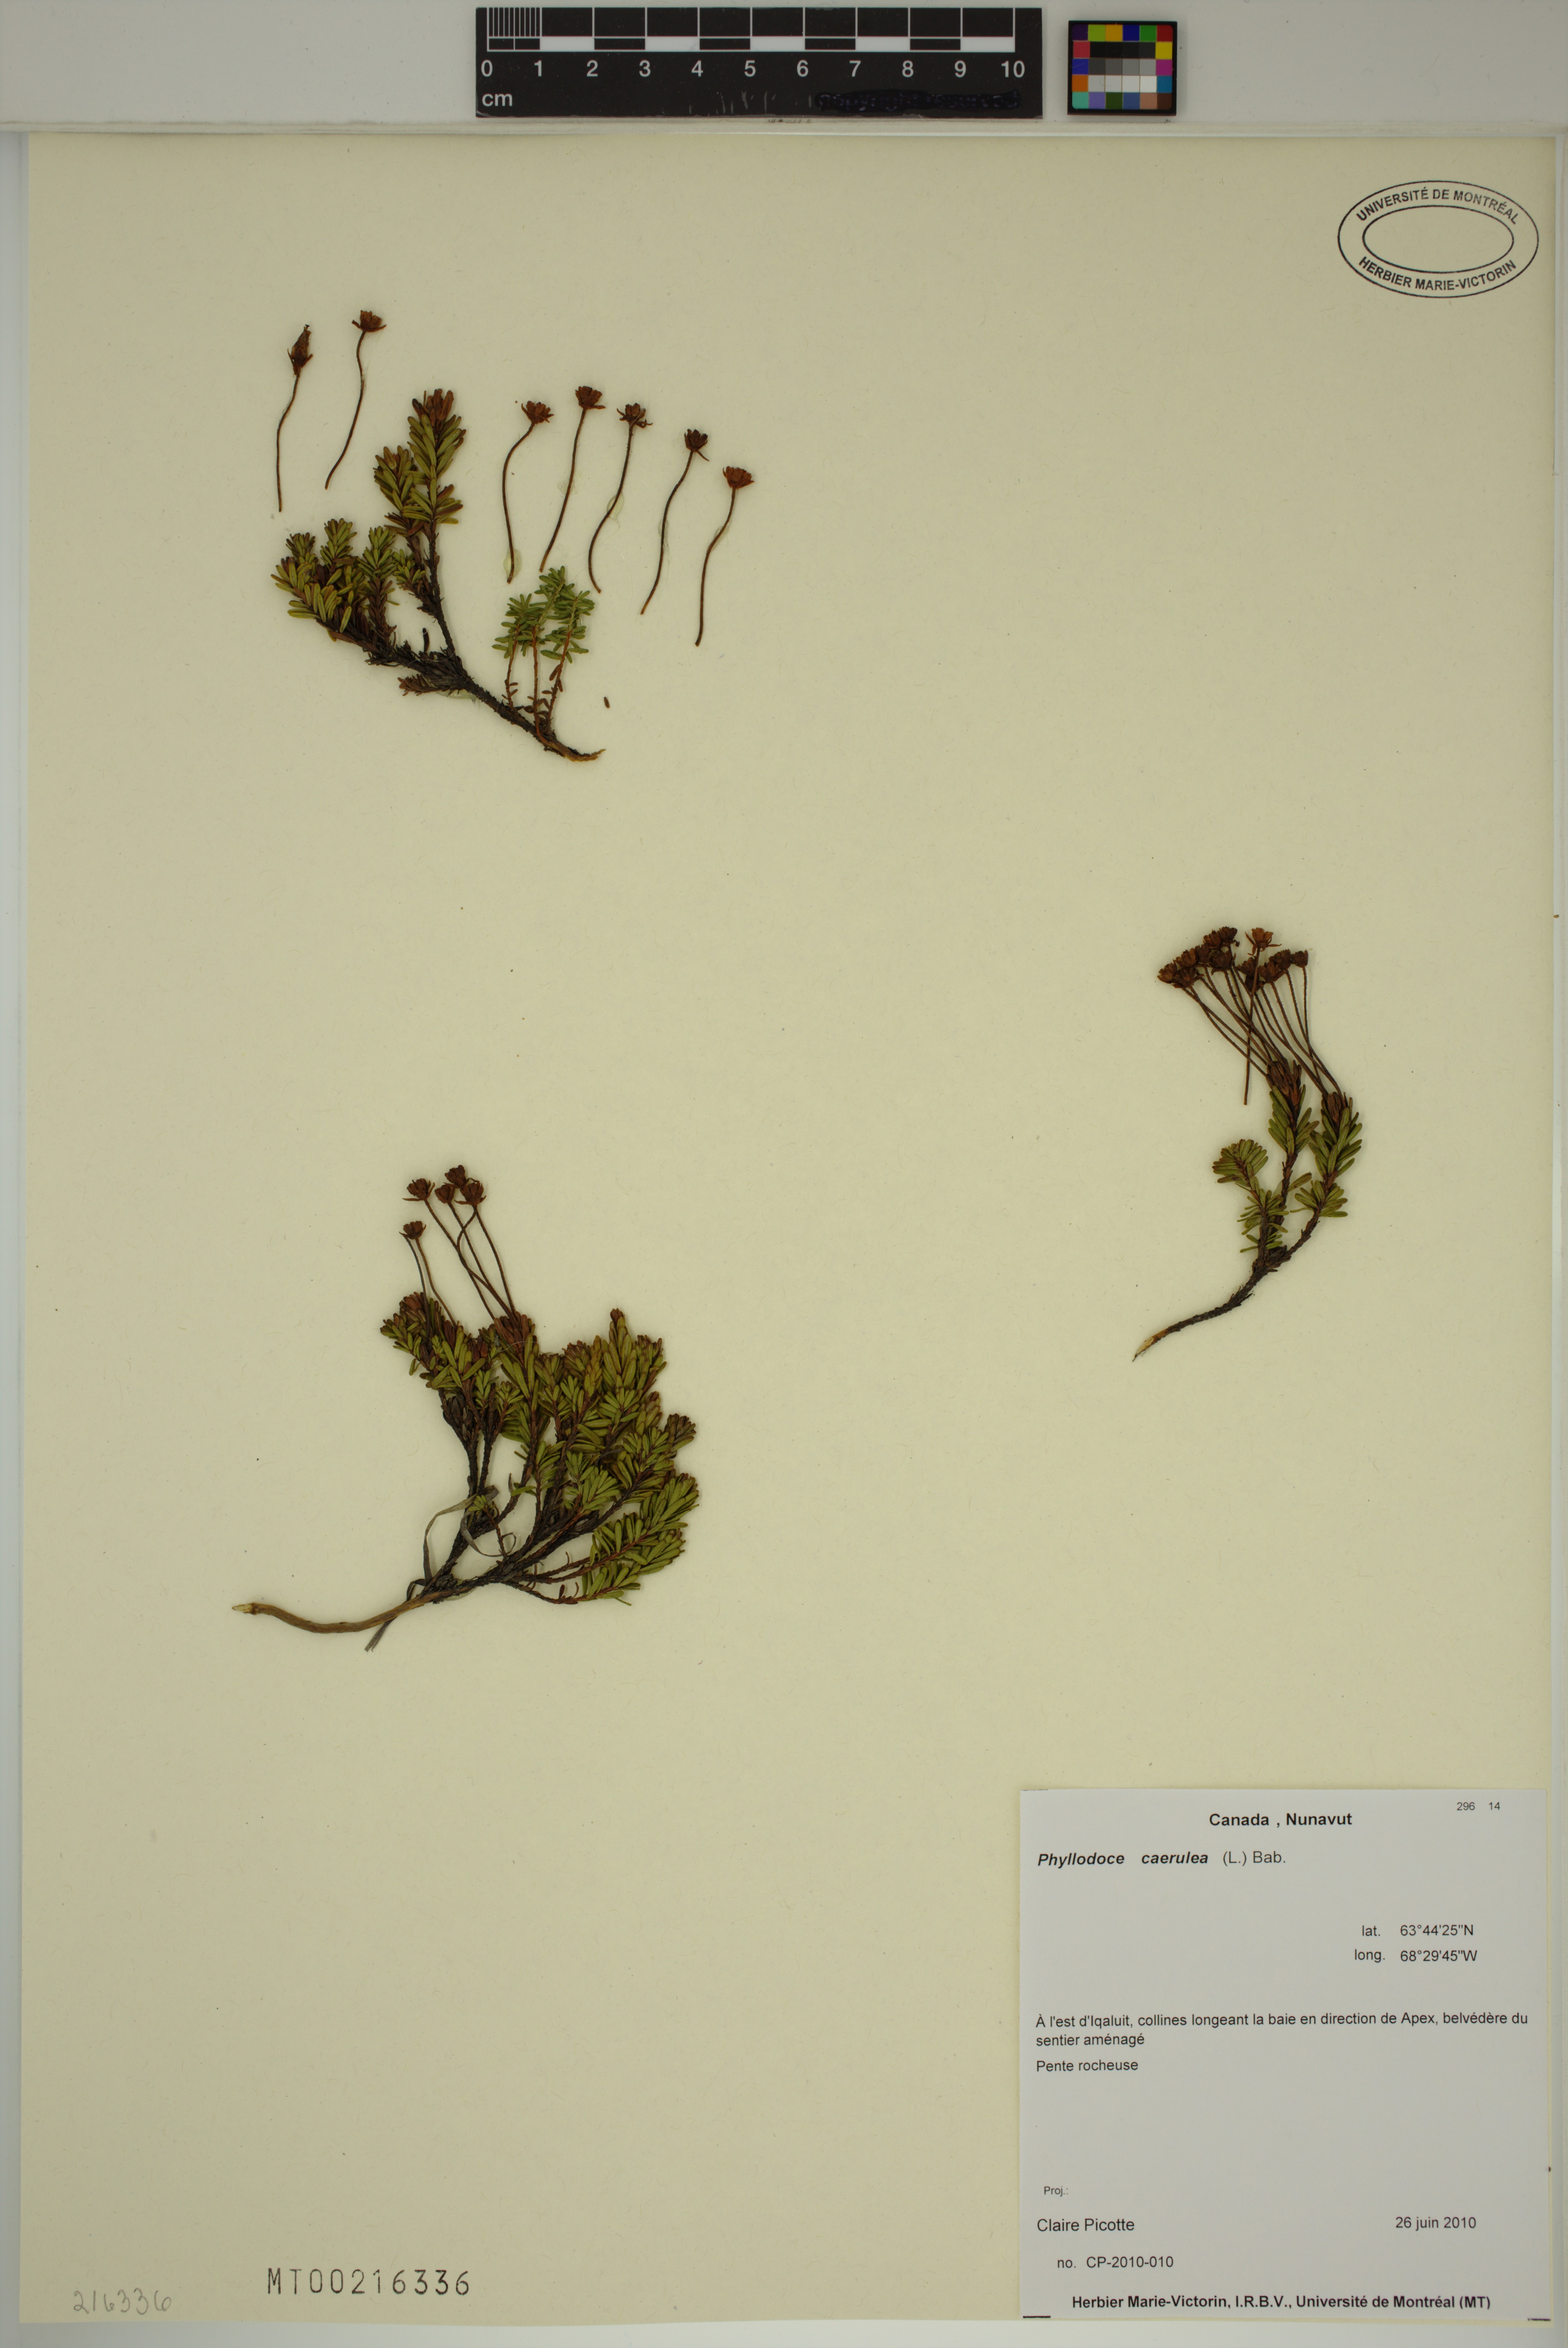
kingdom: Plantae
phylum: Tracheophyta
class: Magnoliopsida
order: Ericales
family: Ericaceae
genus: Phyllodoce
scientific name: Phyllodoce caerulea
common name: Blue heath
